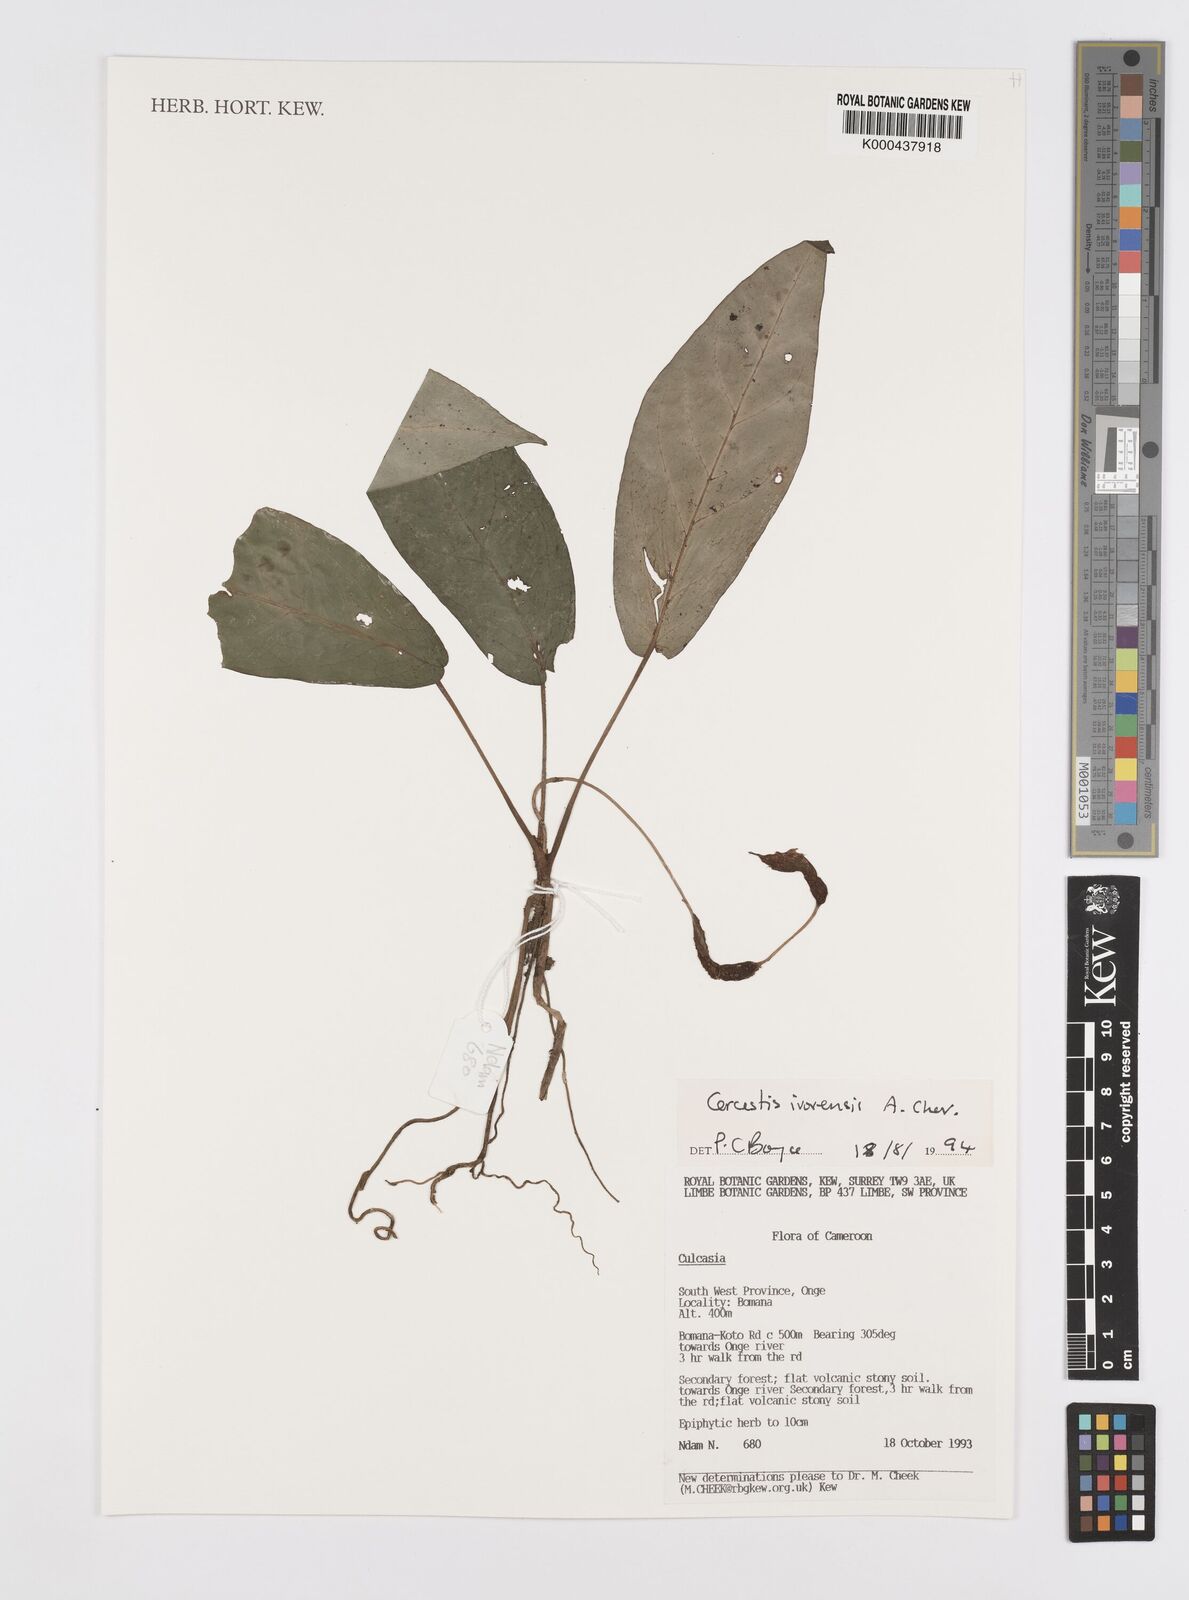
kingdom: Plantae
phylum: Tracheophyta
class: Liliopsida
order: Alismatales
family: Araceae
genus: Cercestis
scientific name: Cercestis ivorensis
